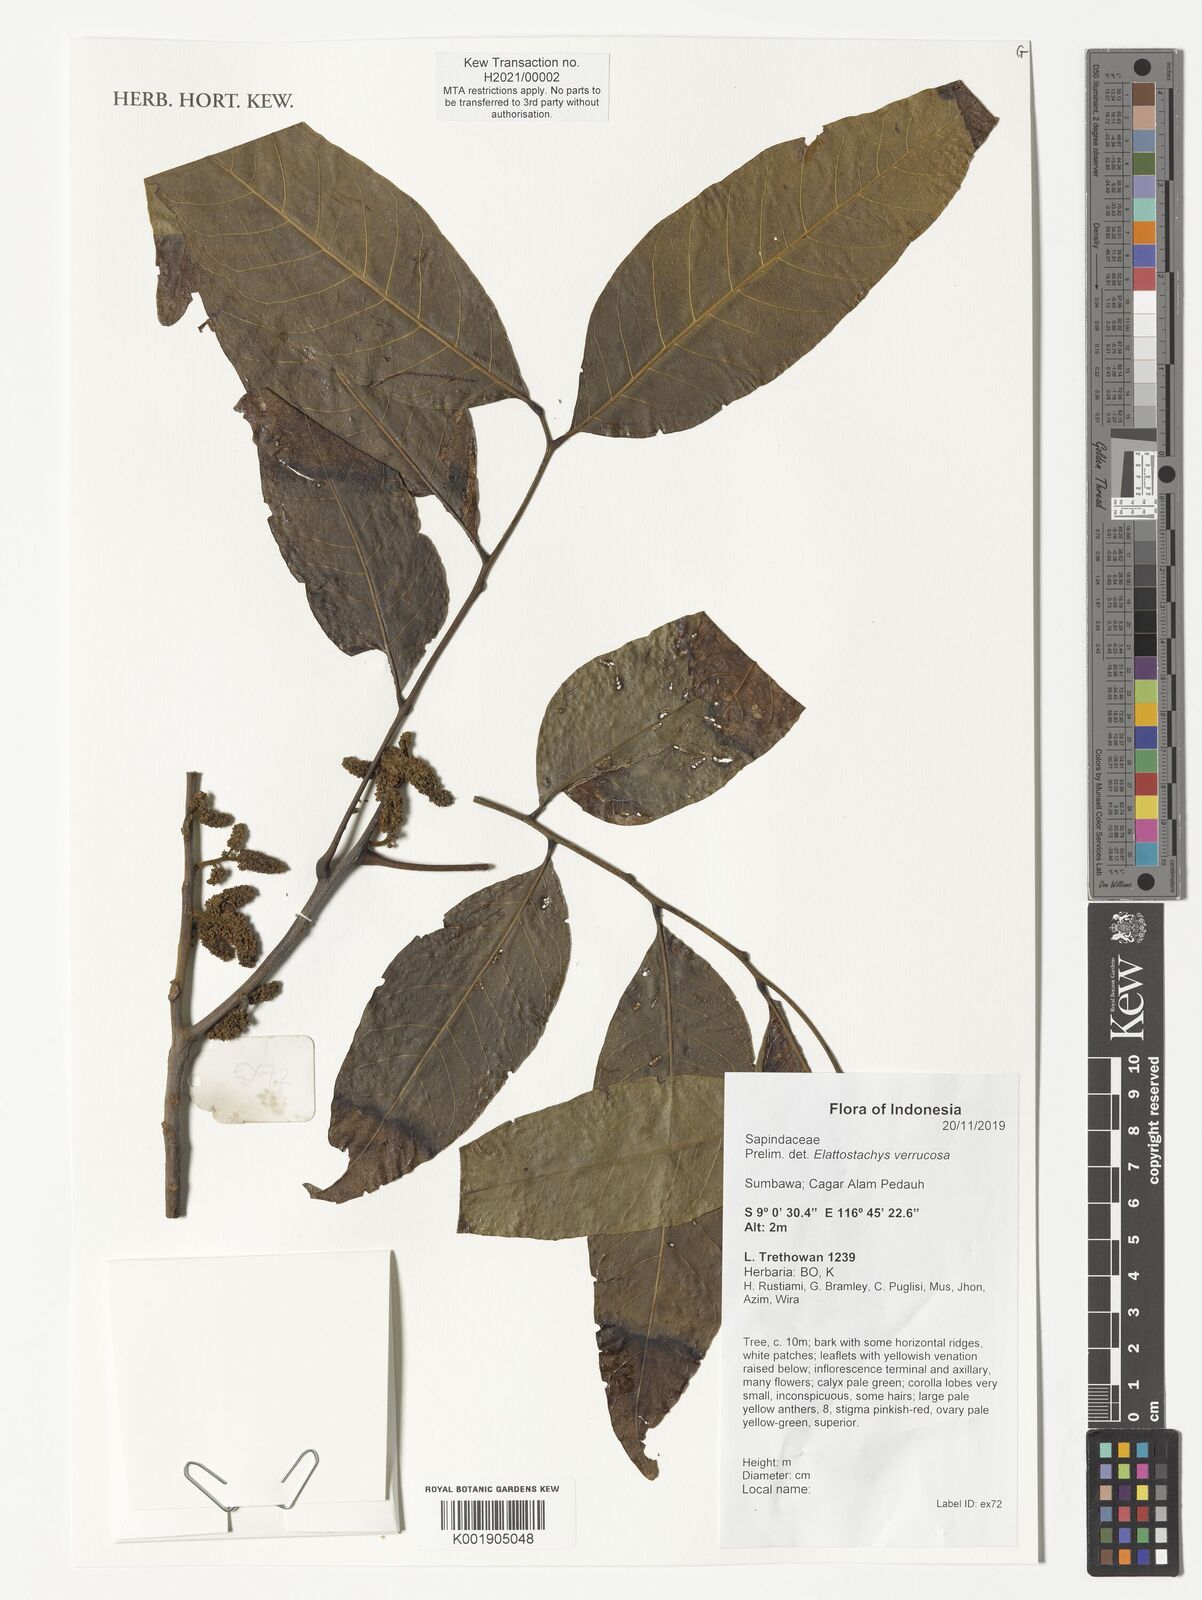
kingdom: Plantae
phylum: Tracheophyta
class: Magnoliopsida
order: Sapindales
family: Sapindaceae
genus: Elattostachys
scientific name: Elattostachys verrucosa
